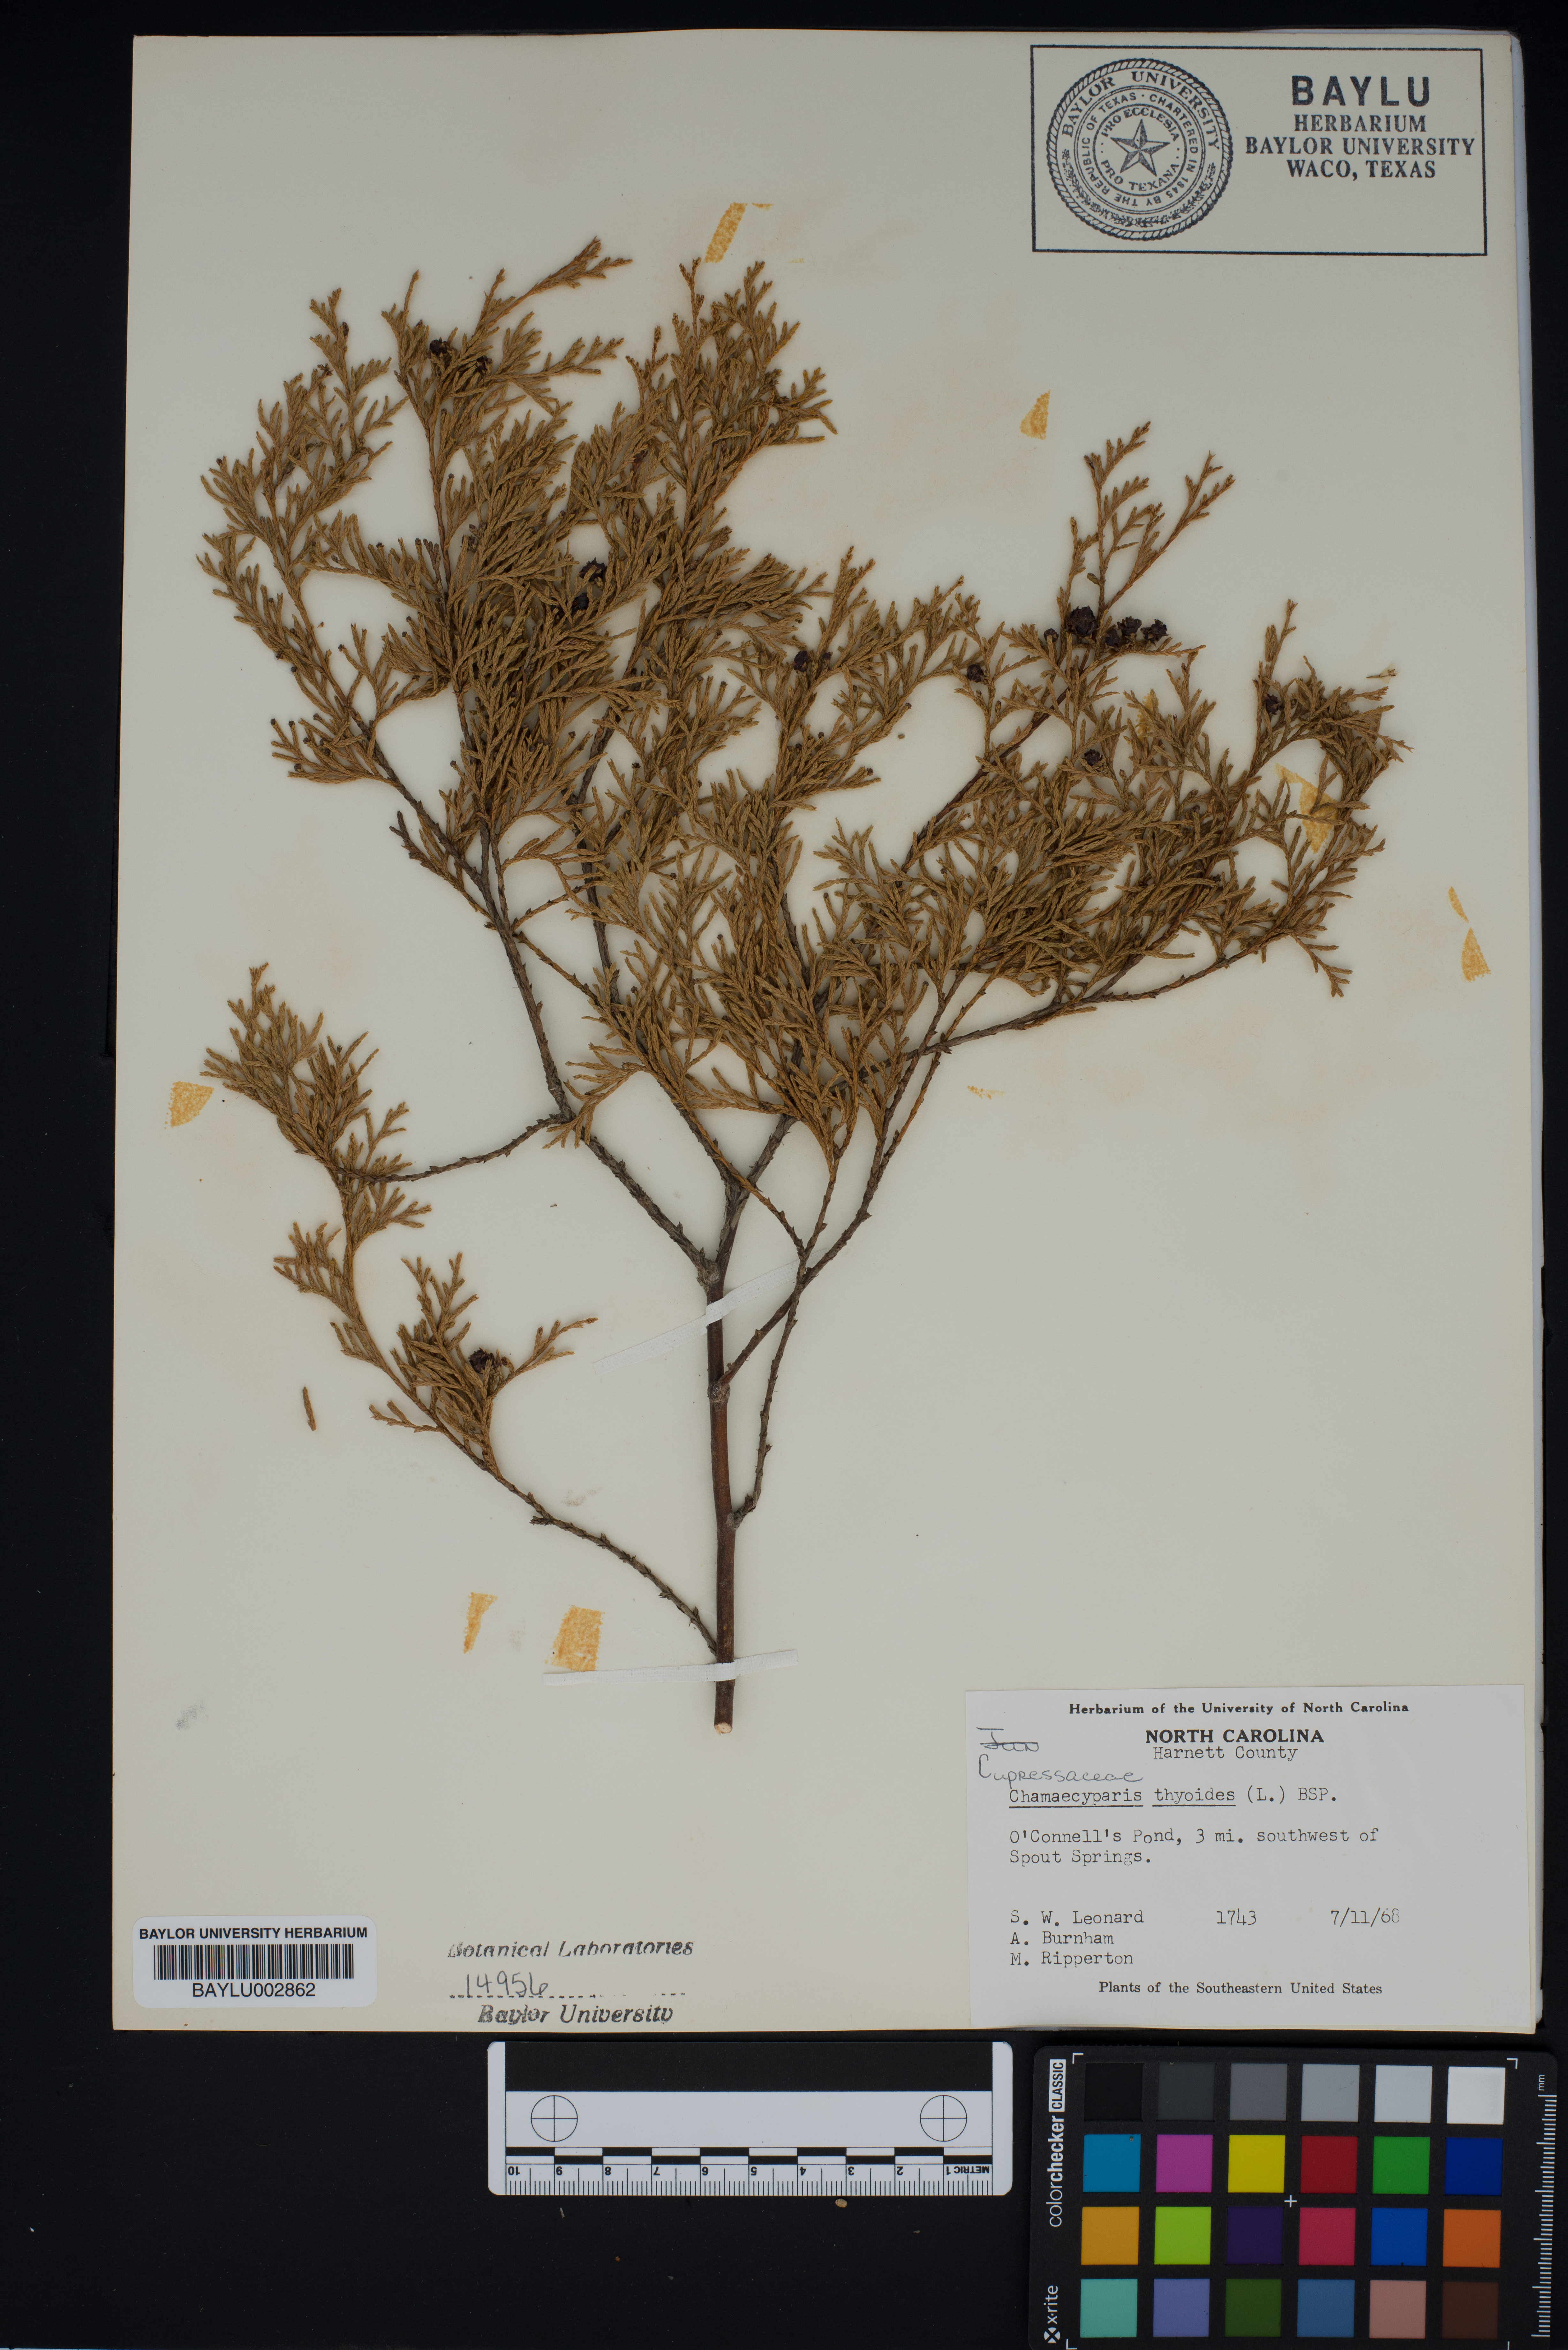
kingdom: Plantae
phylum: Tracheophyta
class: Pinopsida
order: Pinales
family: Cupressaceae
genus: Chamaecyparis
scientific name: Chamaecyparis thyoides
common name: Atlantic white cedar
